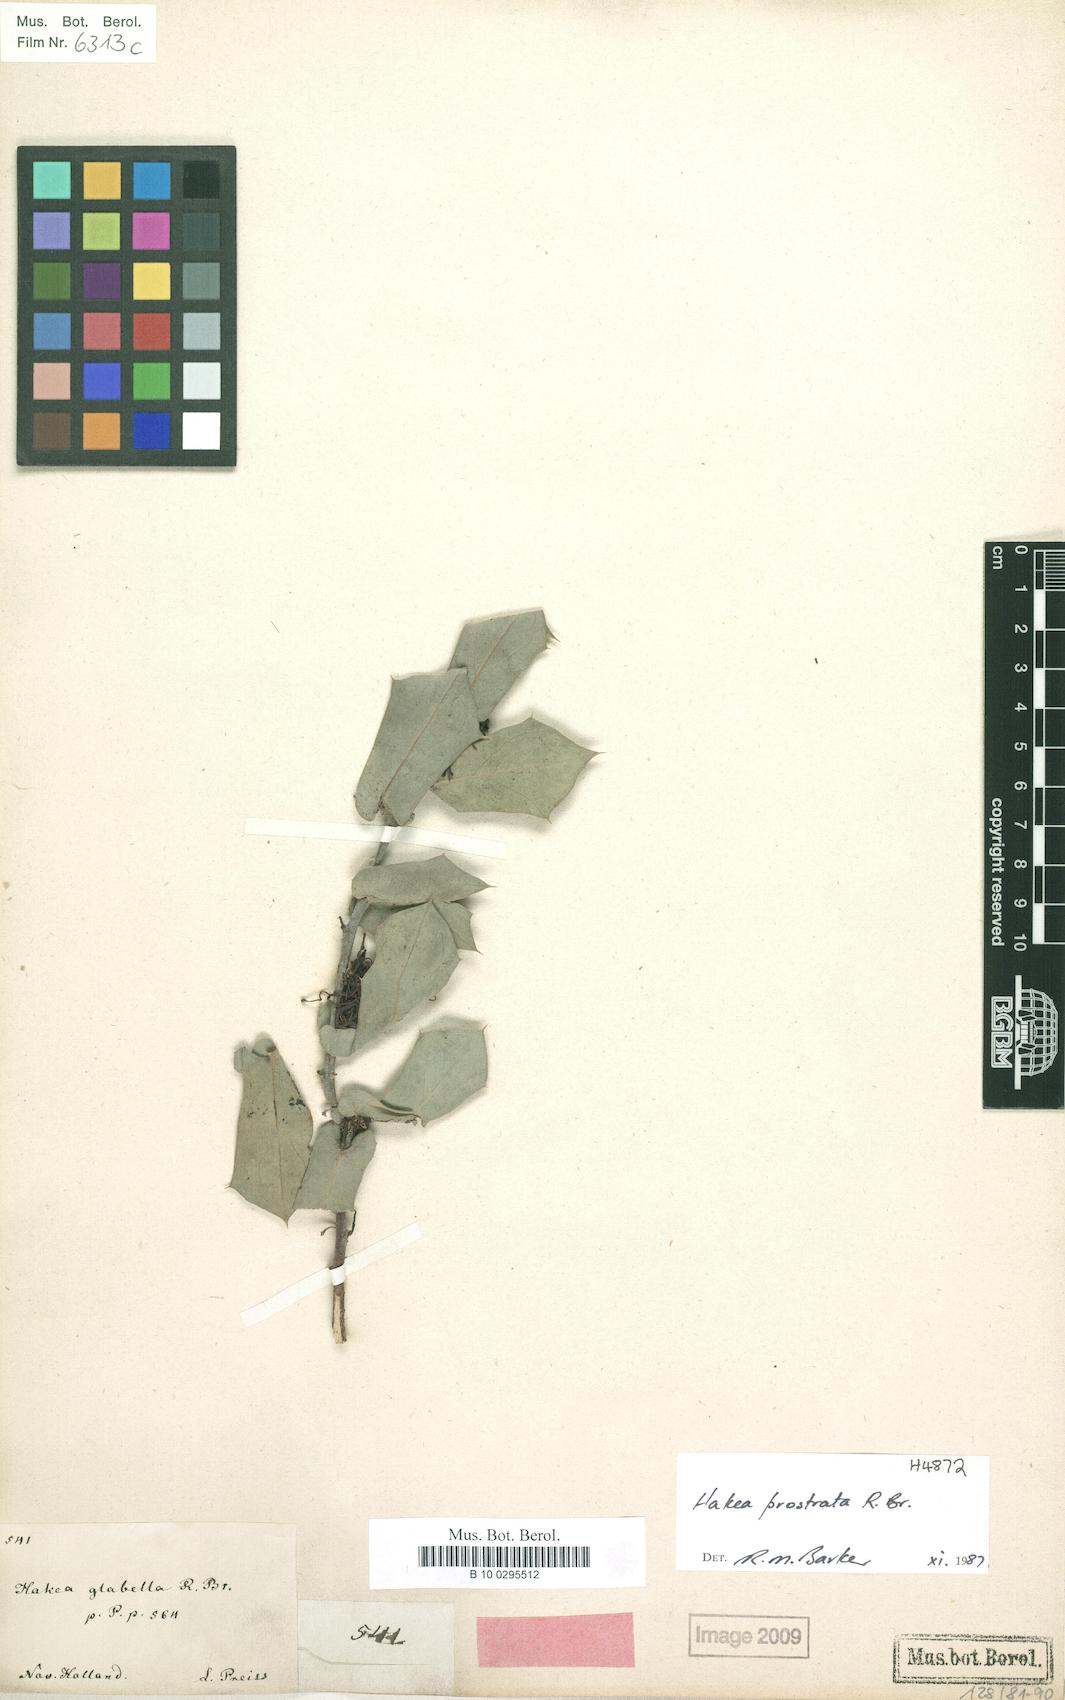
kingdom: Plantae
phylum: Tracheophyta
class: Magnoliopsida
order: Proteales
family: Proteaceae
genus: Hakea
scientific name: Hakea prostrata
